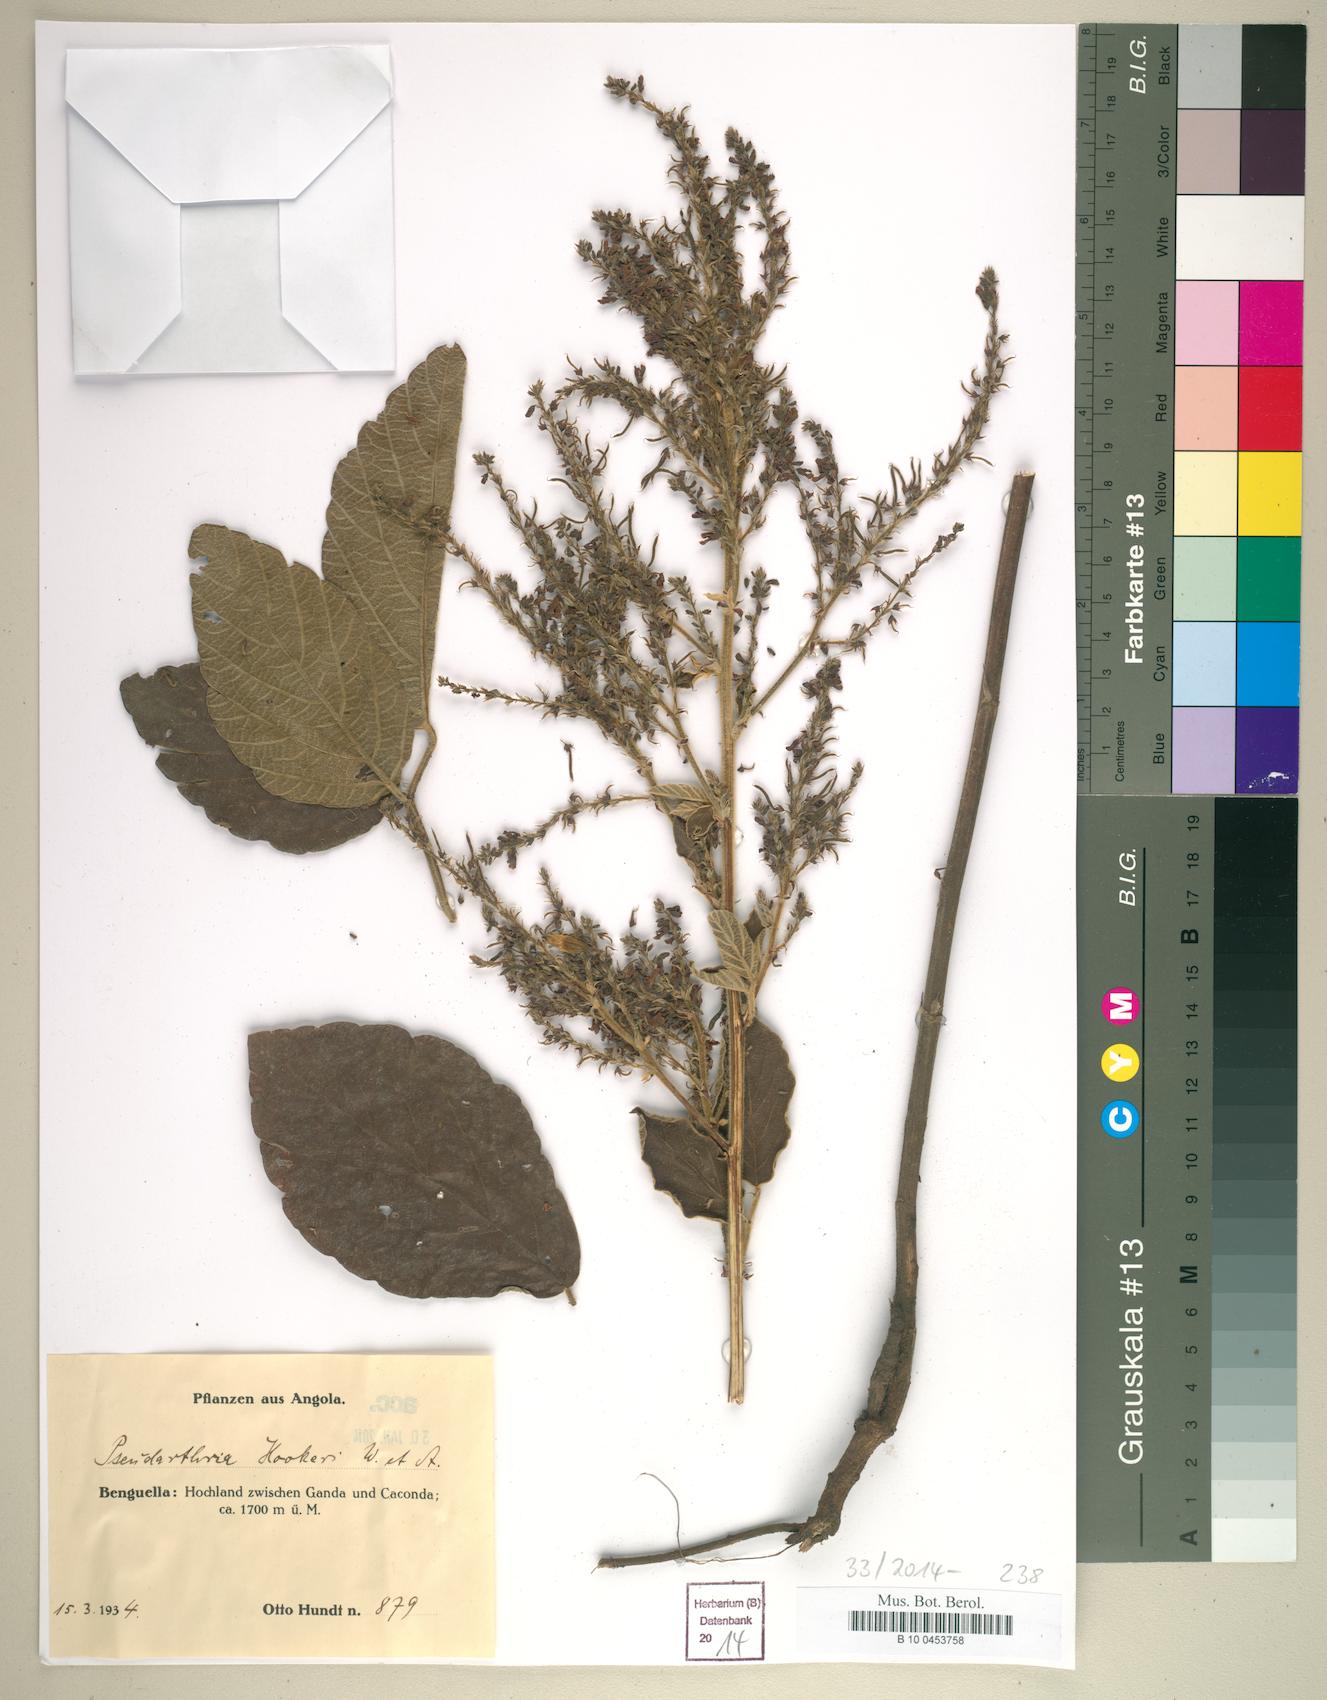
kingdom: Plantae
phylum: Tracheophyta
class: Magnoliopsida
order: Fabales
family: Fabaceae
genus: Pseudarthria
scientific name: Pseudarthria hookeri
